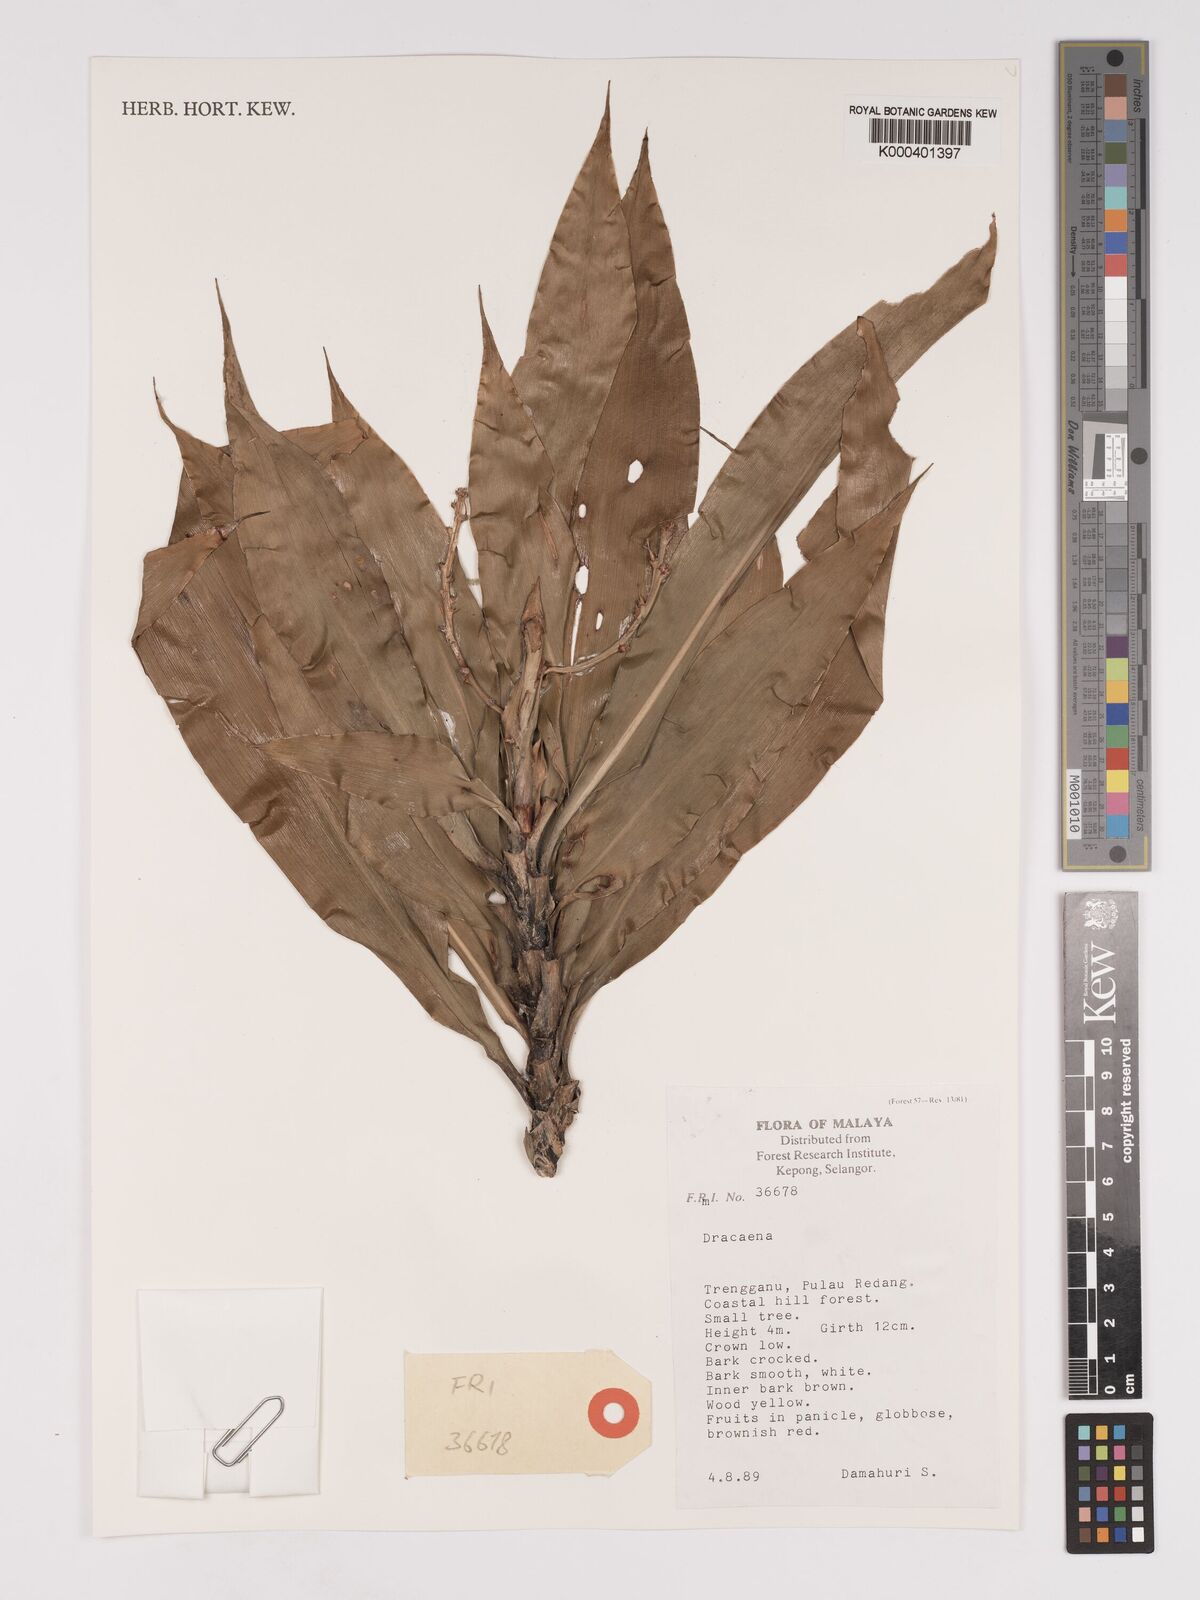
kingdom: Plantae
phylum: Tracheophyta
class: Liliopsida
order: Asparagales
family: Asparagaceae
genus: Dracaena
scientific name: Dracaena
